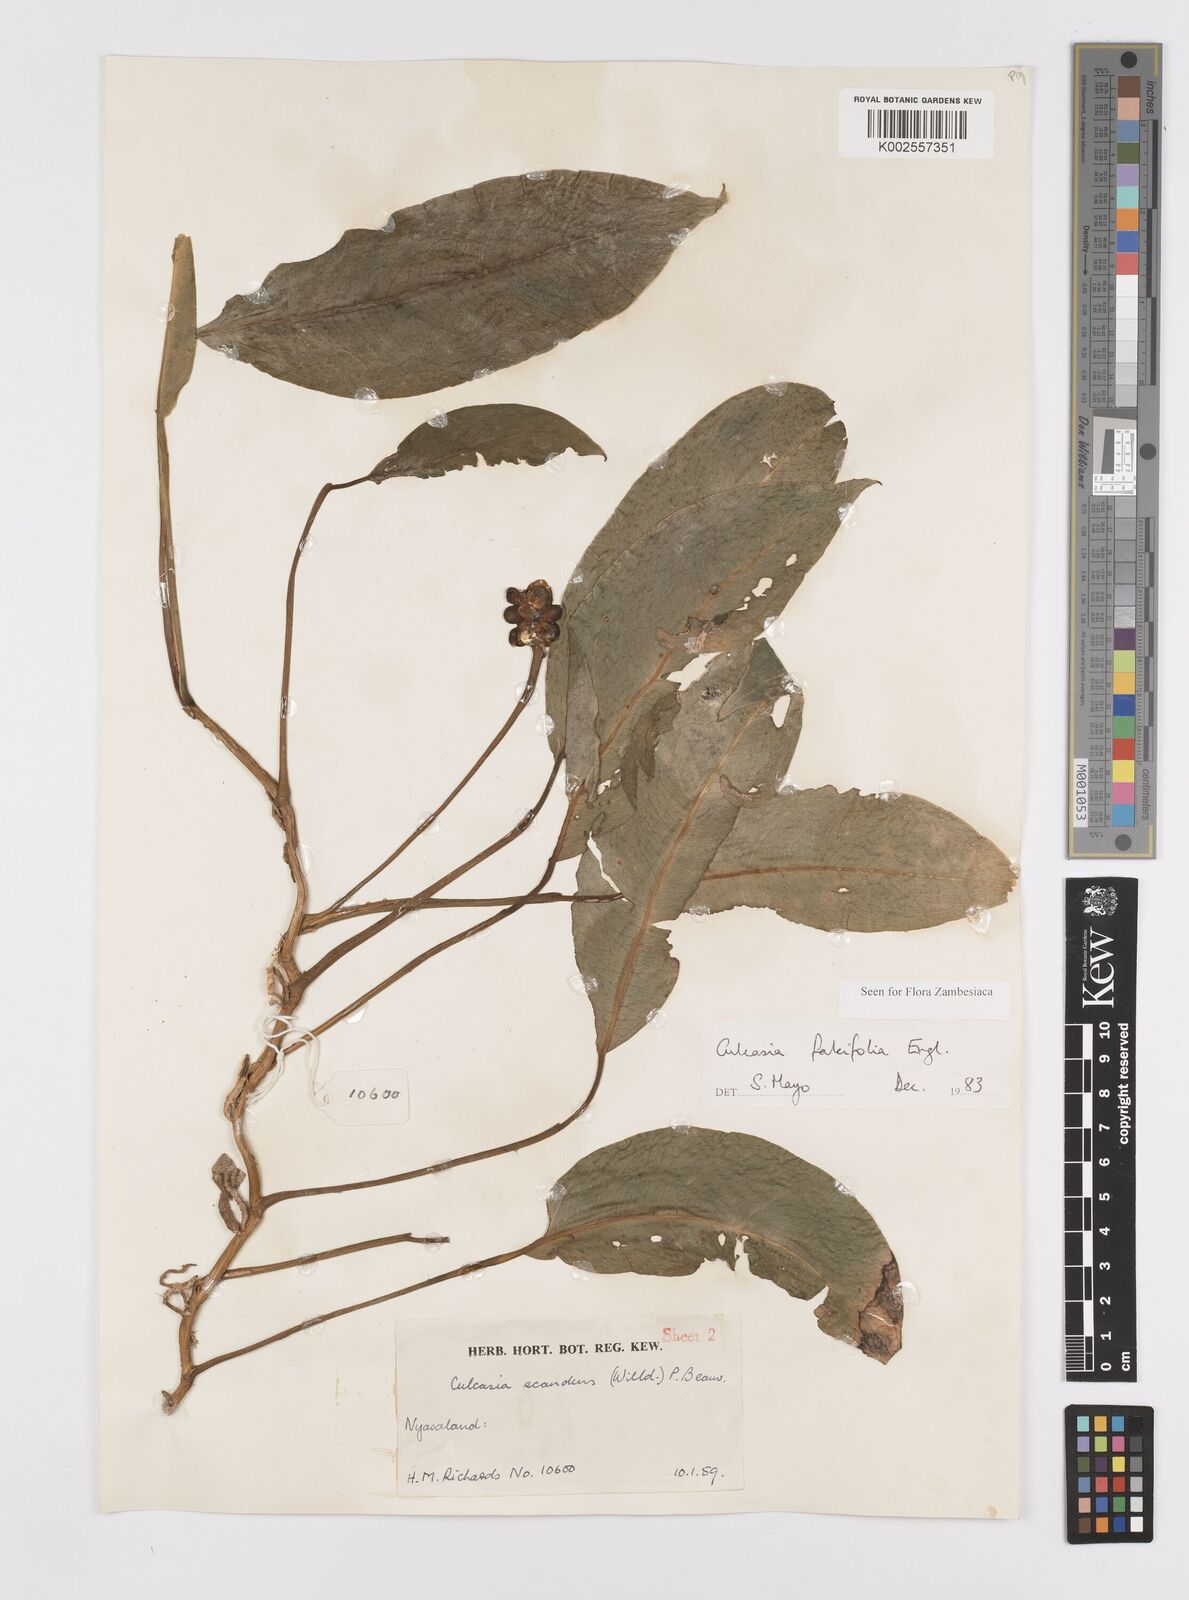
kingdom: Plantae
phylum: Tracheophyta
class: Liliopsida
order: Alismatales
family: Araceae
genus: Culcasia
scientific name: Culcasia falcifolia
